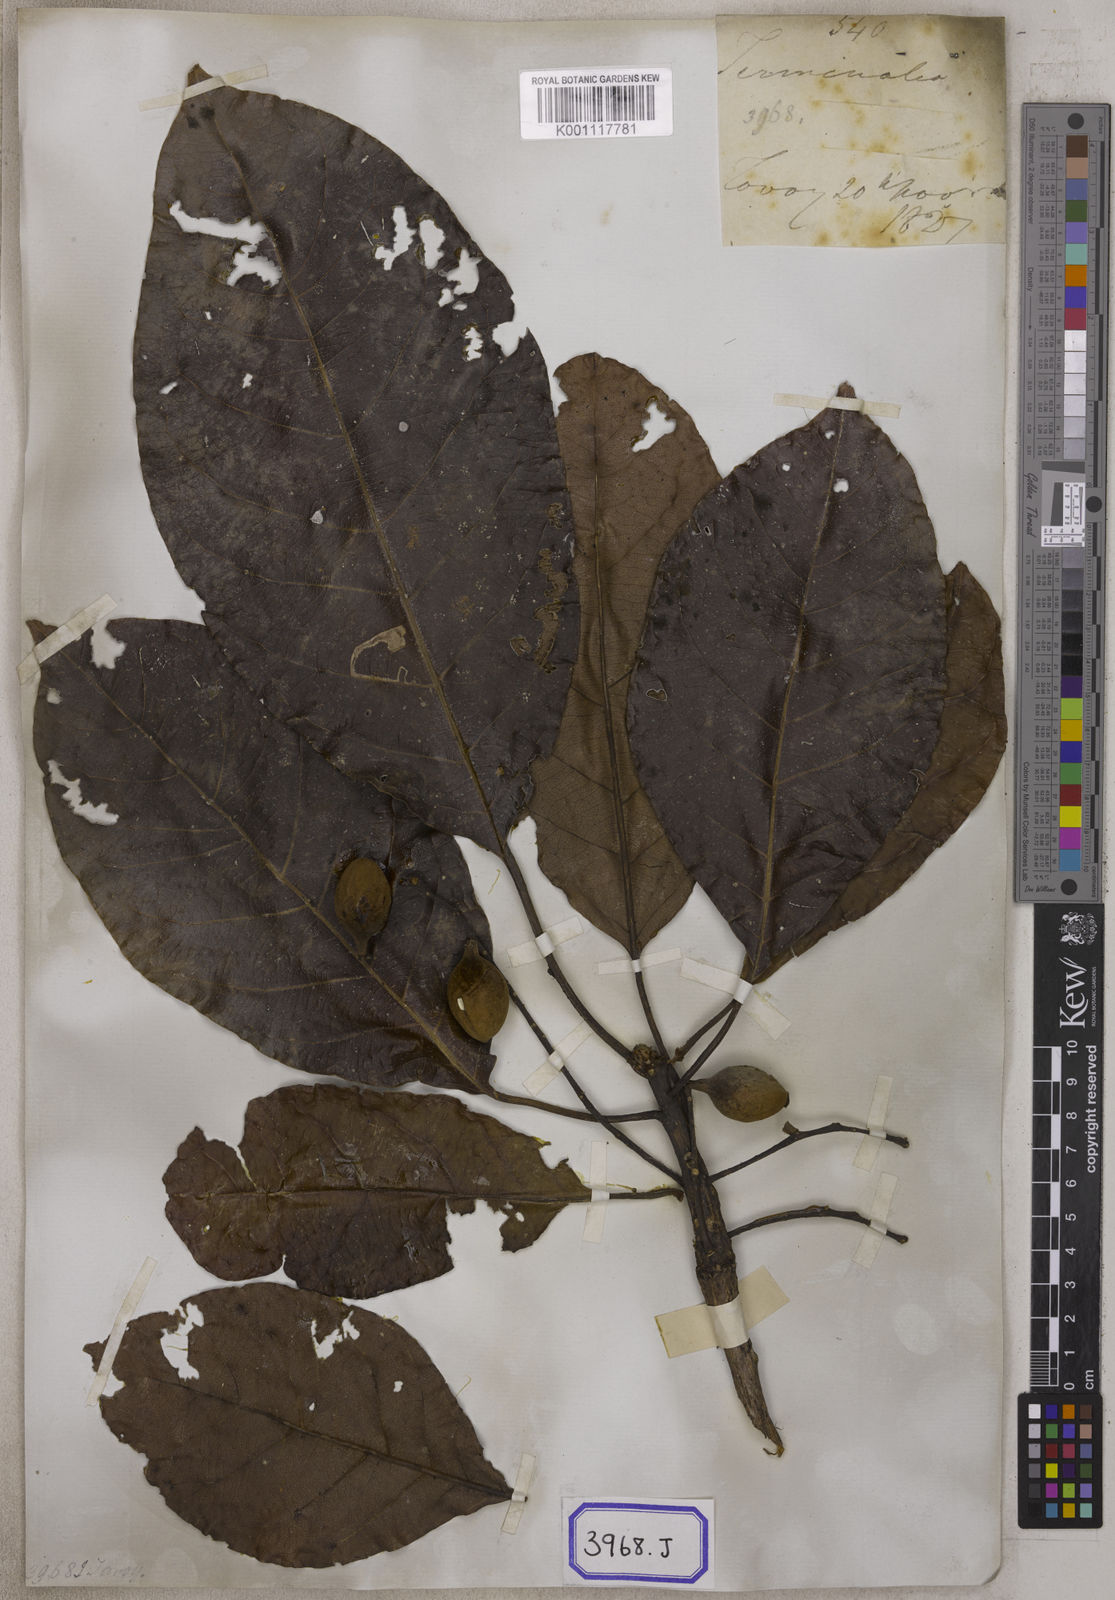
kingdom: Plantae
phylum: Tracheophyta
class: Magnoliopsida
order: Myrtales
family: Combretaceae
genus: Terminalia
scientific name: Terminalia bellirica
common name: Beleric myrobalan
